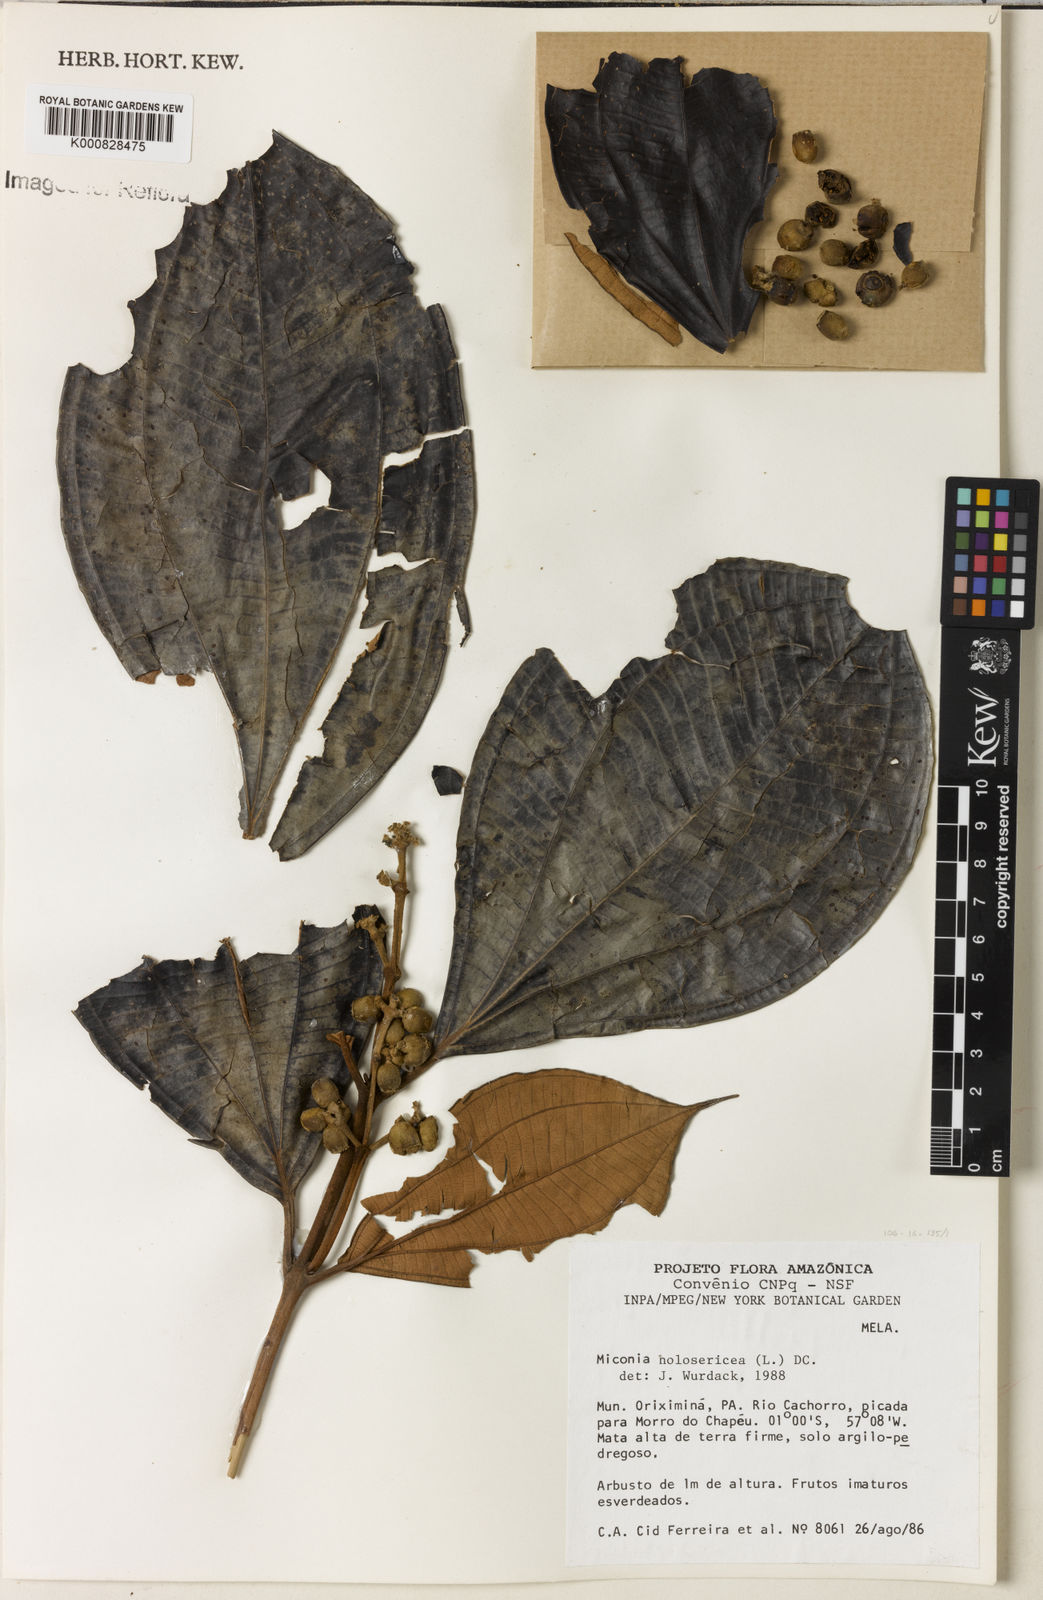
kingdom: Plantae
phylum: Tracheophyta
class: Magnoliopsida
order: Myrtales
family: Melastomataceae
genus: Miconia
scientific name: Miconia holosericea
